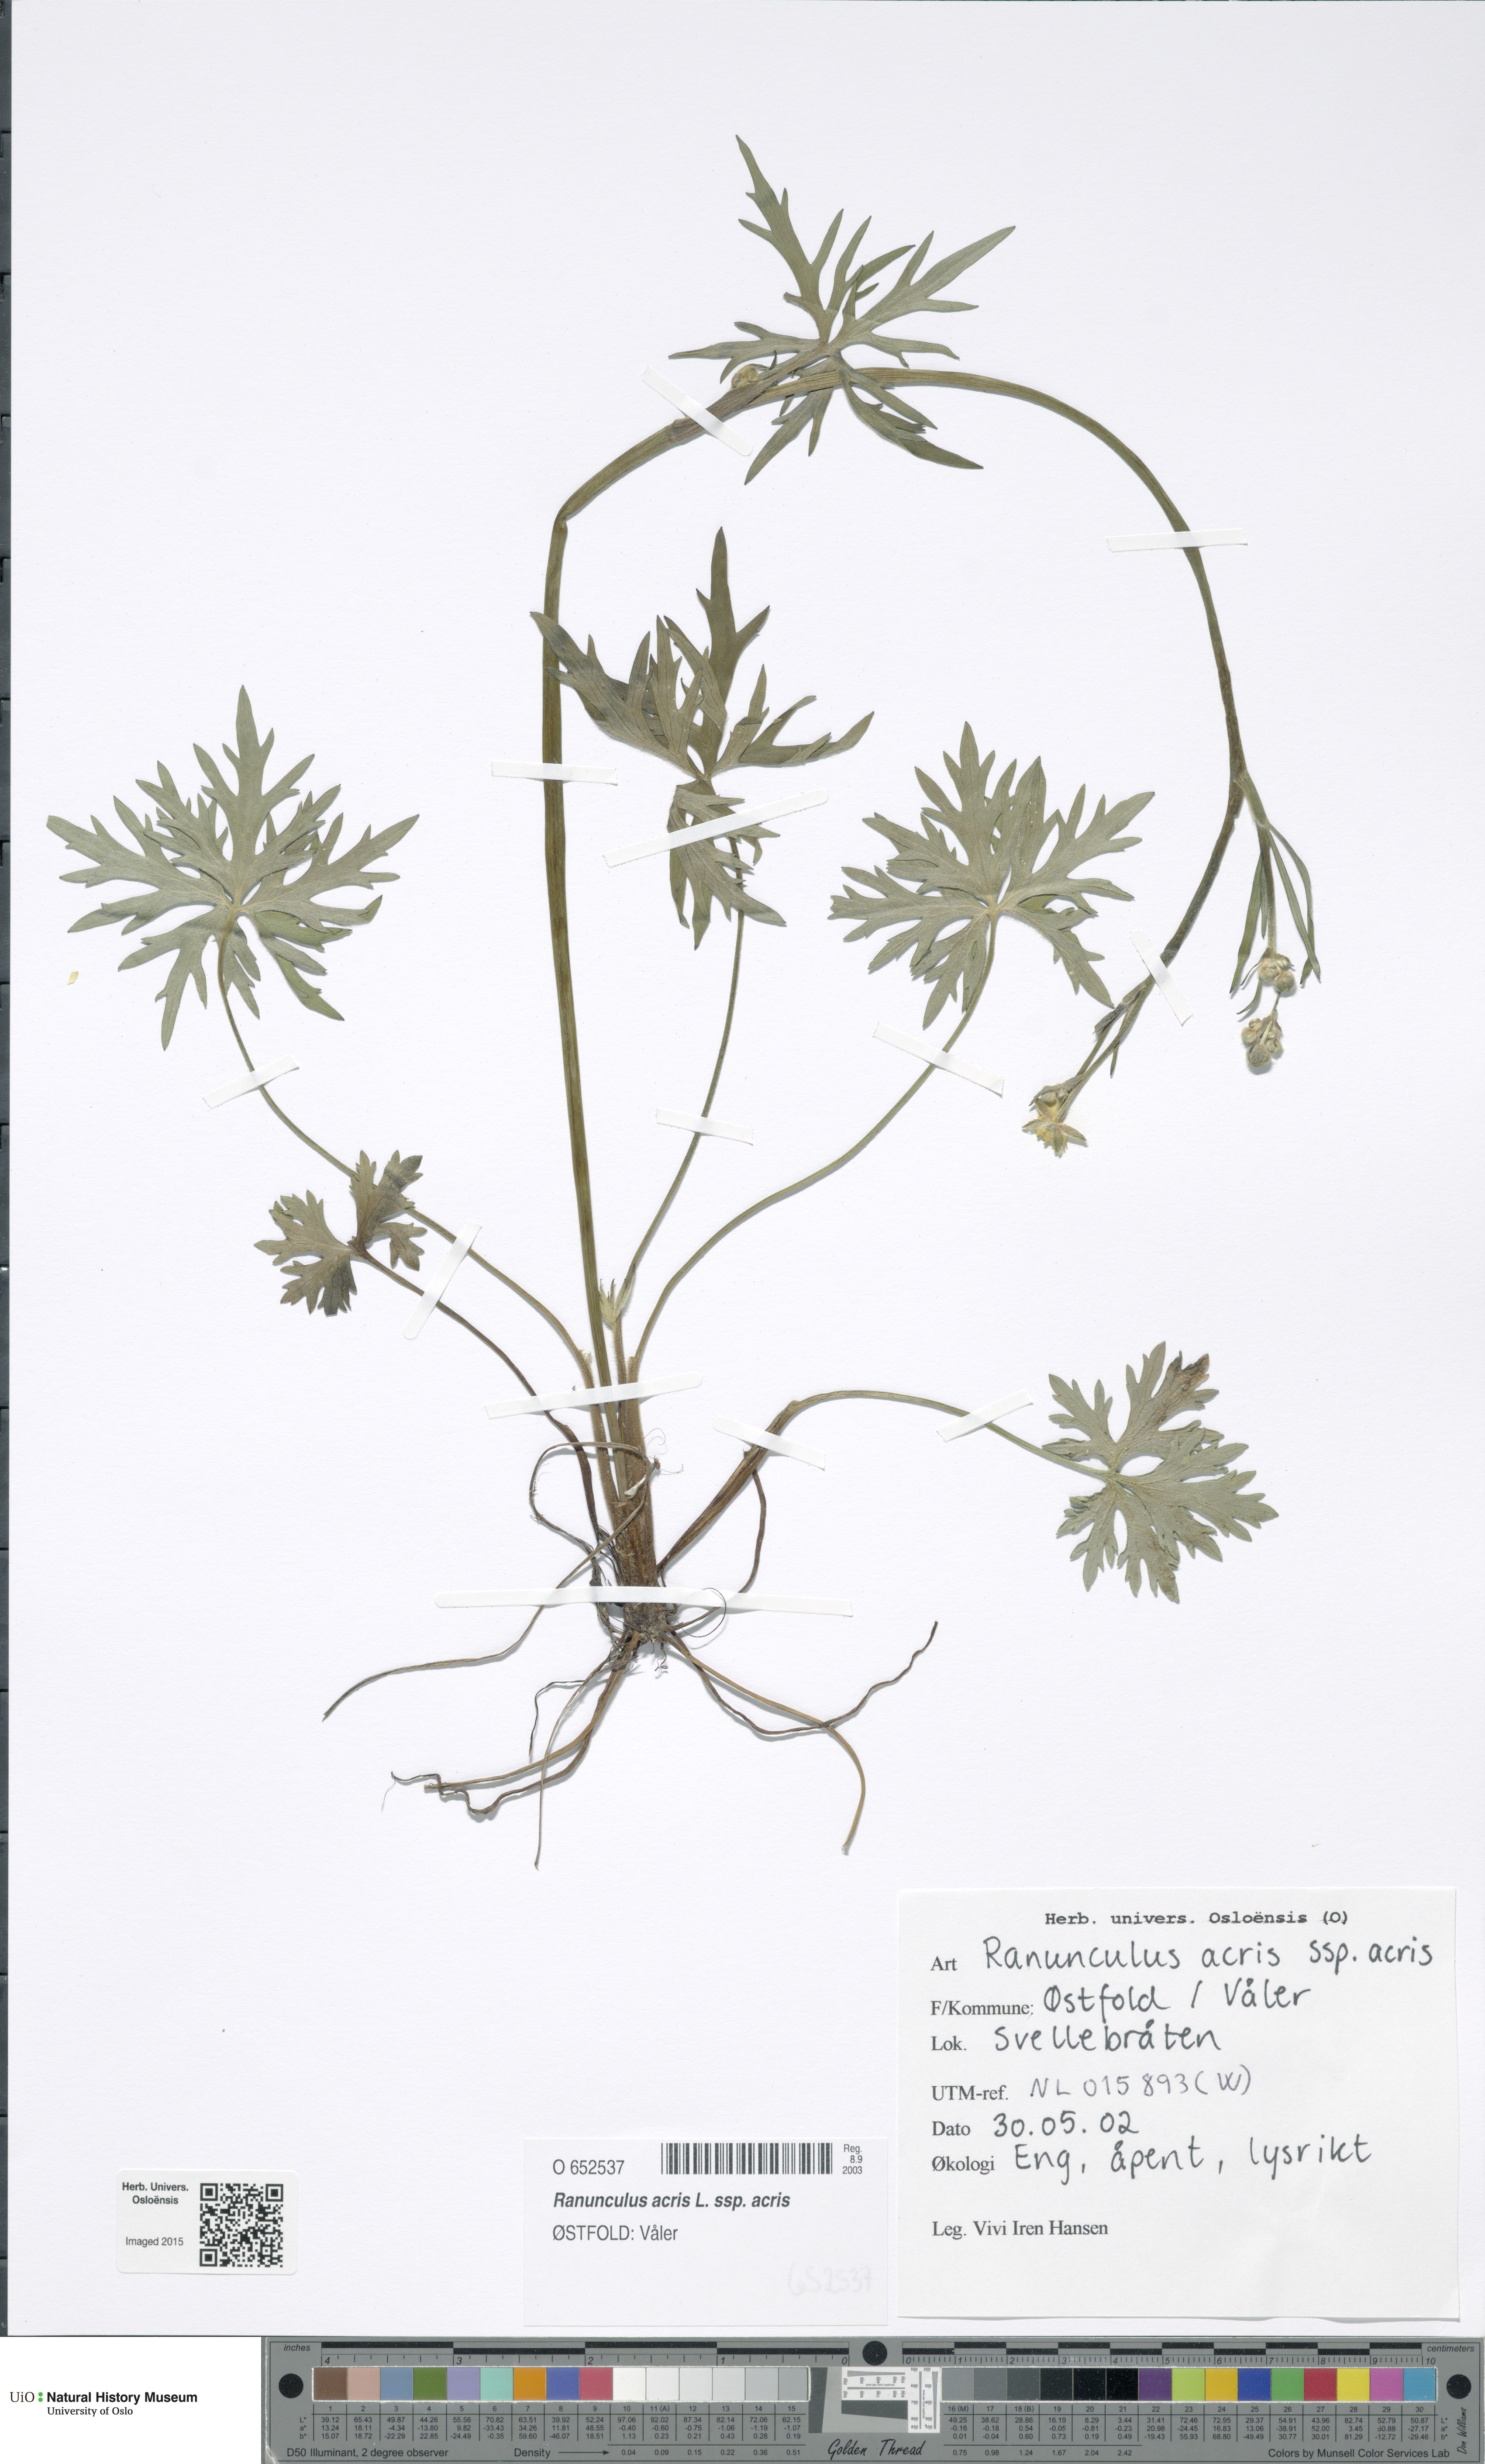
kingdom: Plantae
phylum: Tracheophyta
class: Magnoliopsida
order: Ranunculales
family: Ranunculaceae
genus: Ranunculus
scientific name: Ranunculus acris
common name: Meadow buttercup
